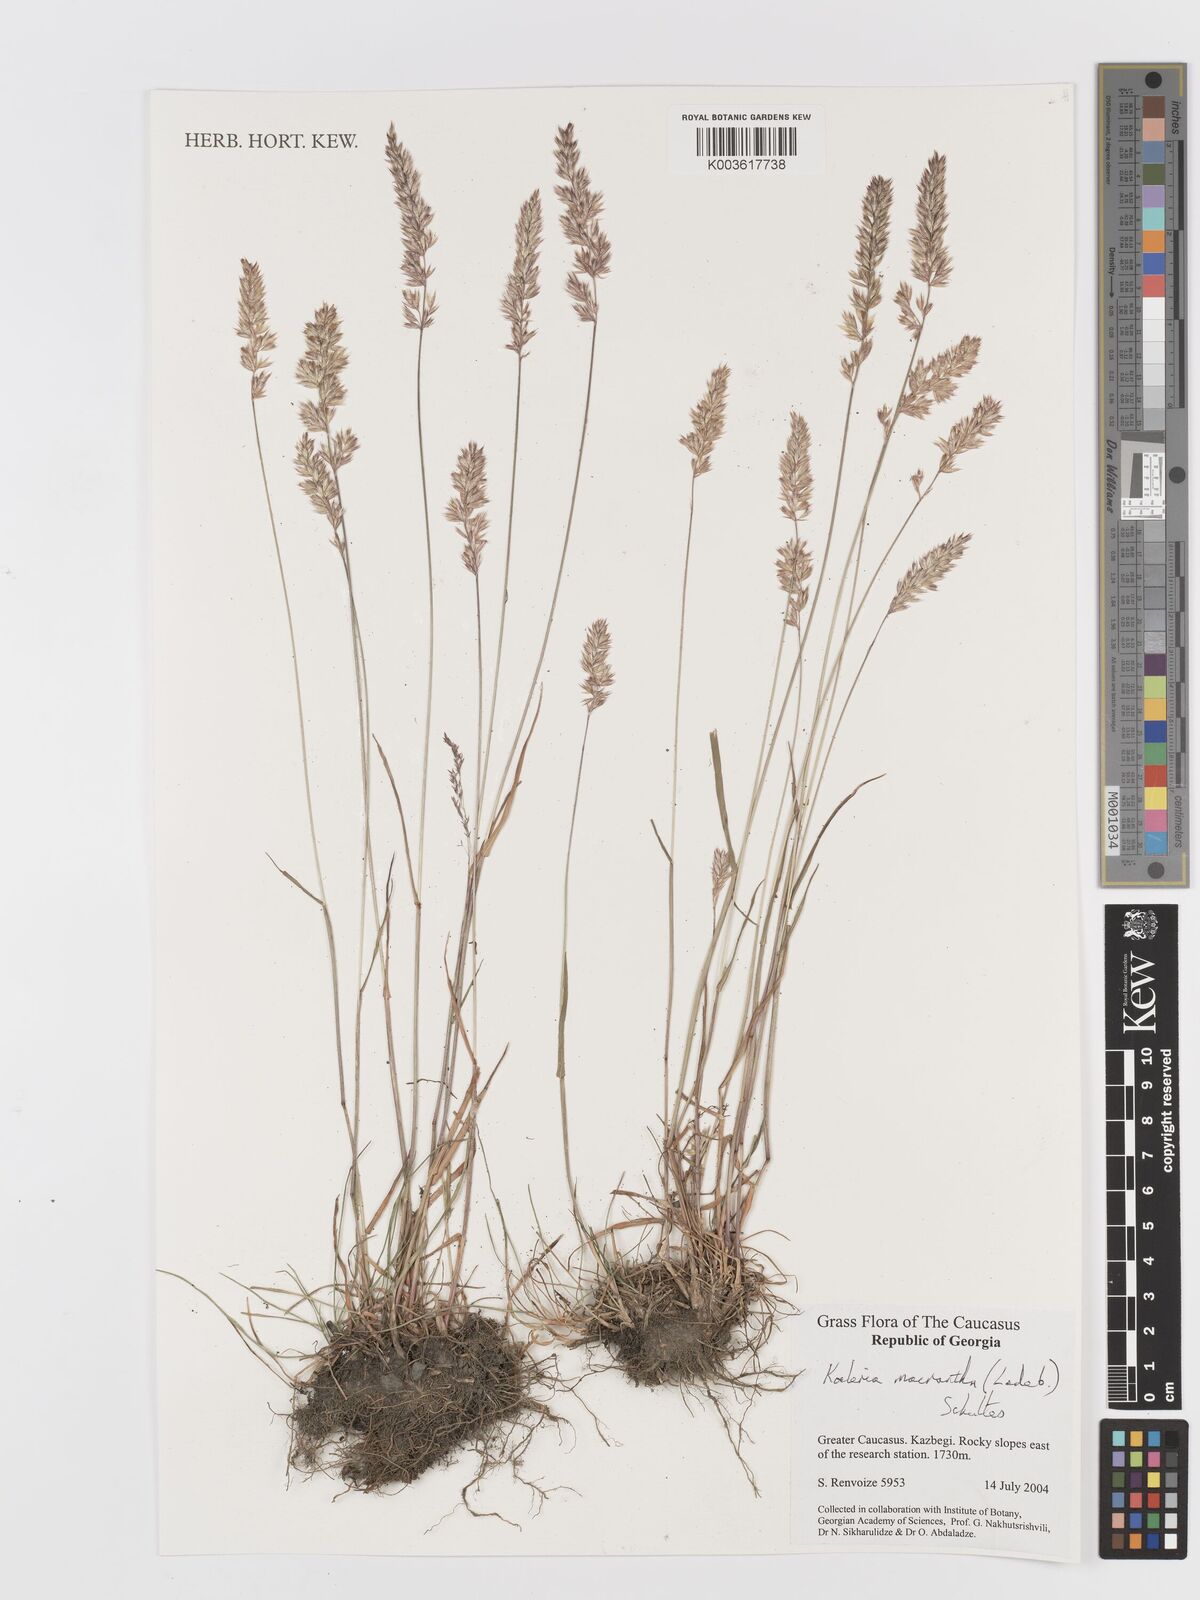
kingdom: Plantae
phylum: Tracheophyta
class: Liliopsida
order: Poales
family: Poaceae
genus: Koeleria
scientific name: Koeleria macrantha
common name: Crested hair-grass
